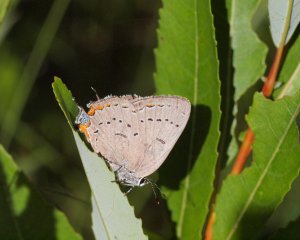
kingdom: Animalia
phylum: Arthropoda
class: Insecta
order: Lepidoptera
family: Lycaenidae
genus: Strymon
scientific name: Strymon acadica
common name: Acadian Hairstreak
